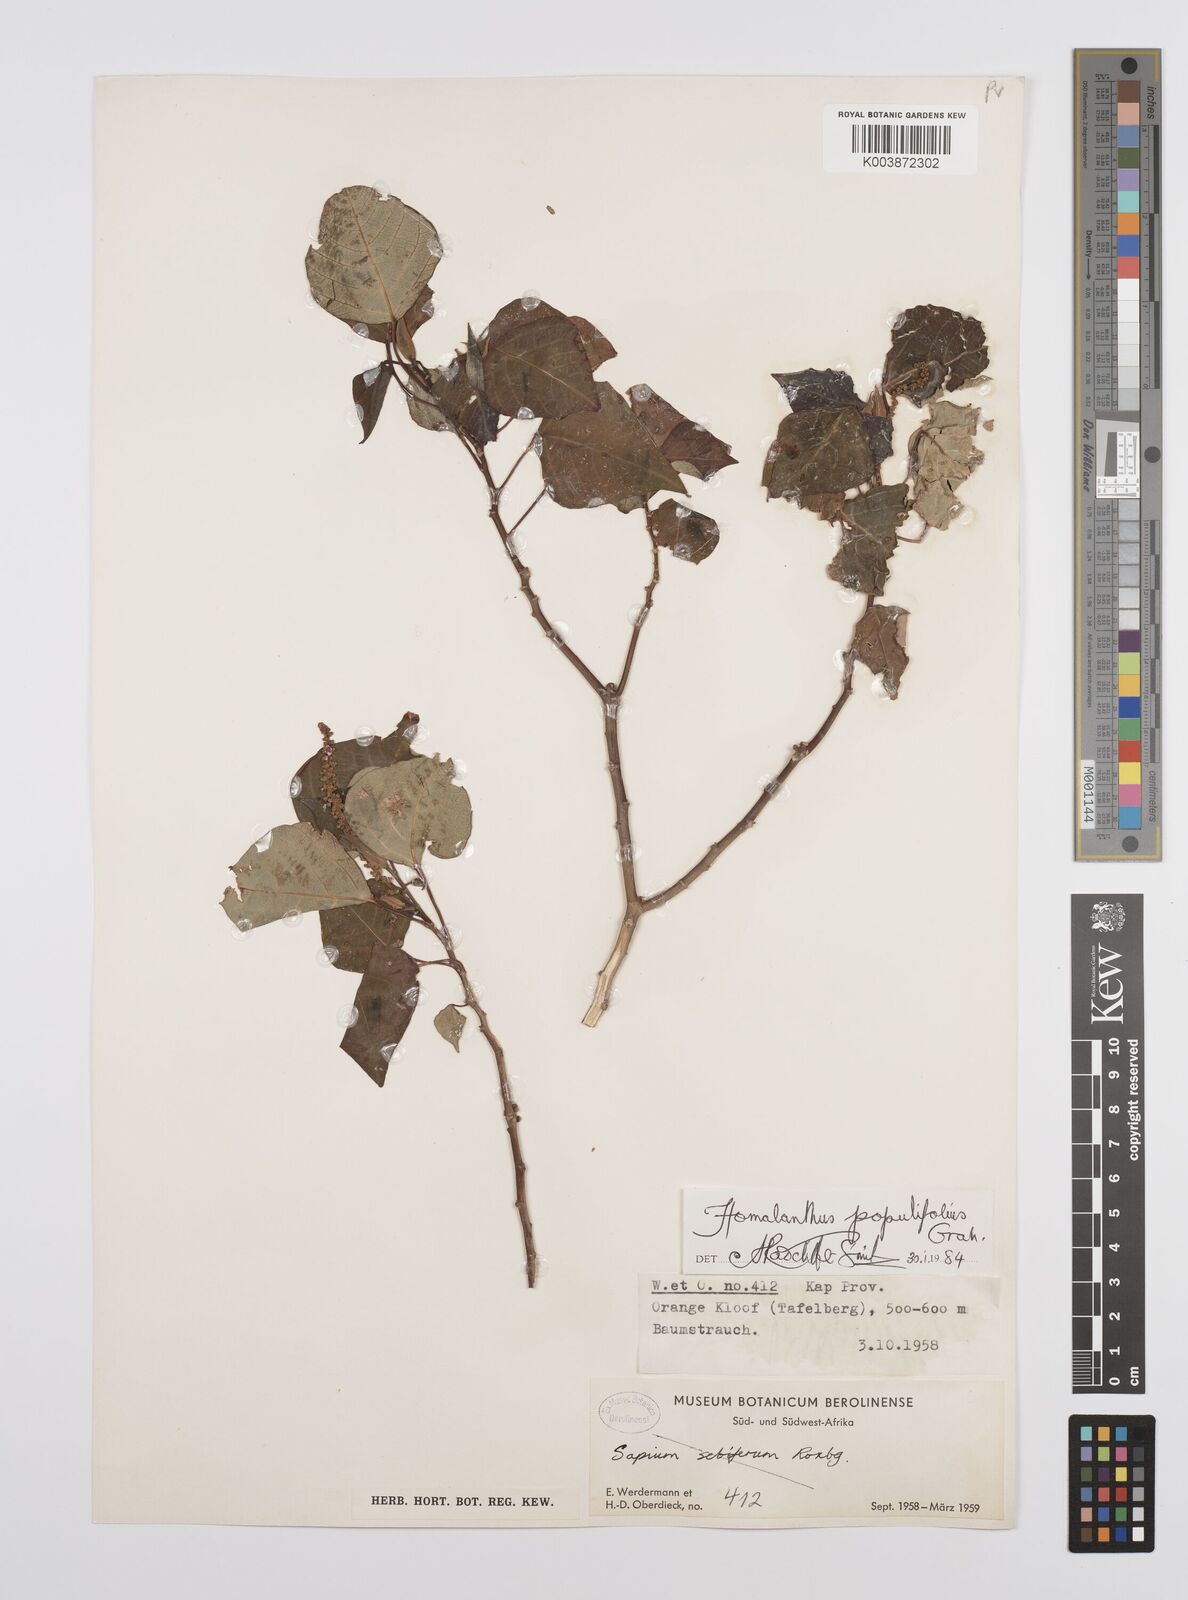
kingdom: Plantae
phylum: Tracheophyta
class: Magnoliopsida
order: Malpighiales
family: Euphorbiaceae
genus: Homalanthus
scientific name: Homalanthus populifolius
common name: Queensland poplar
